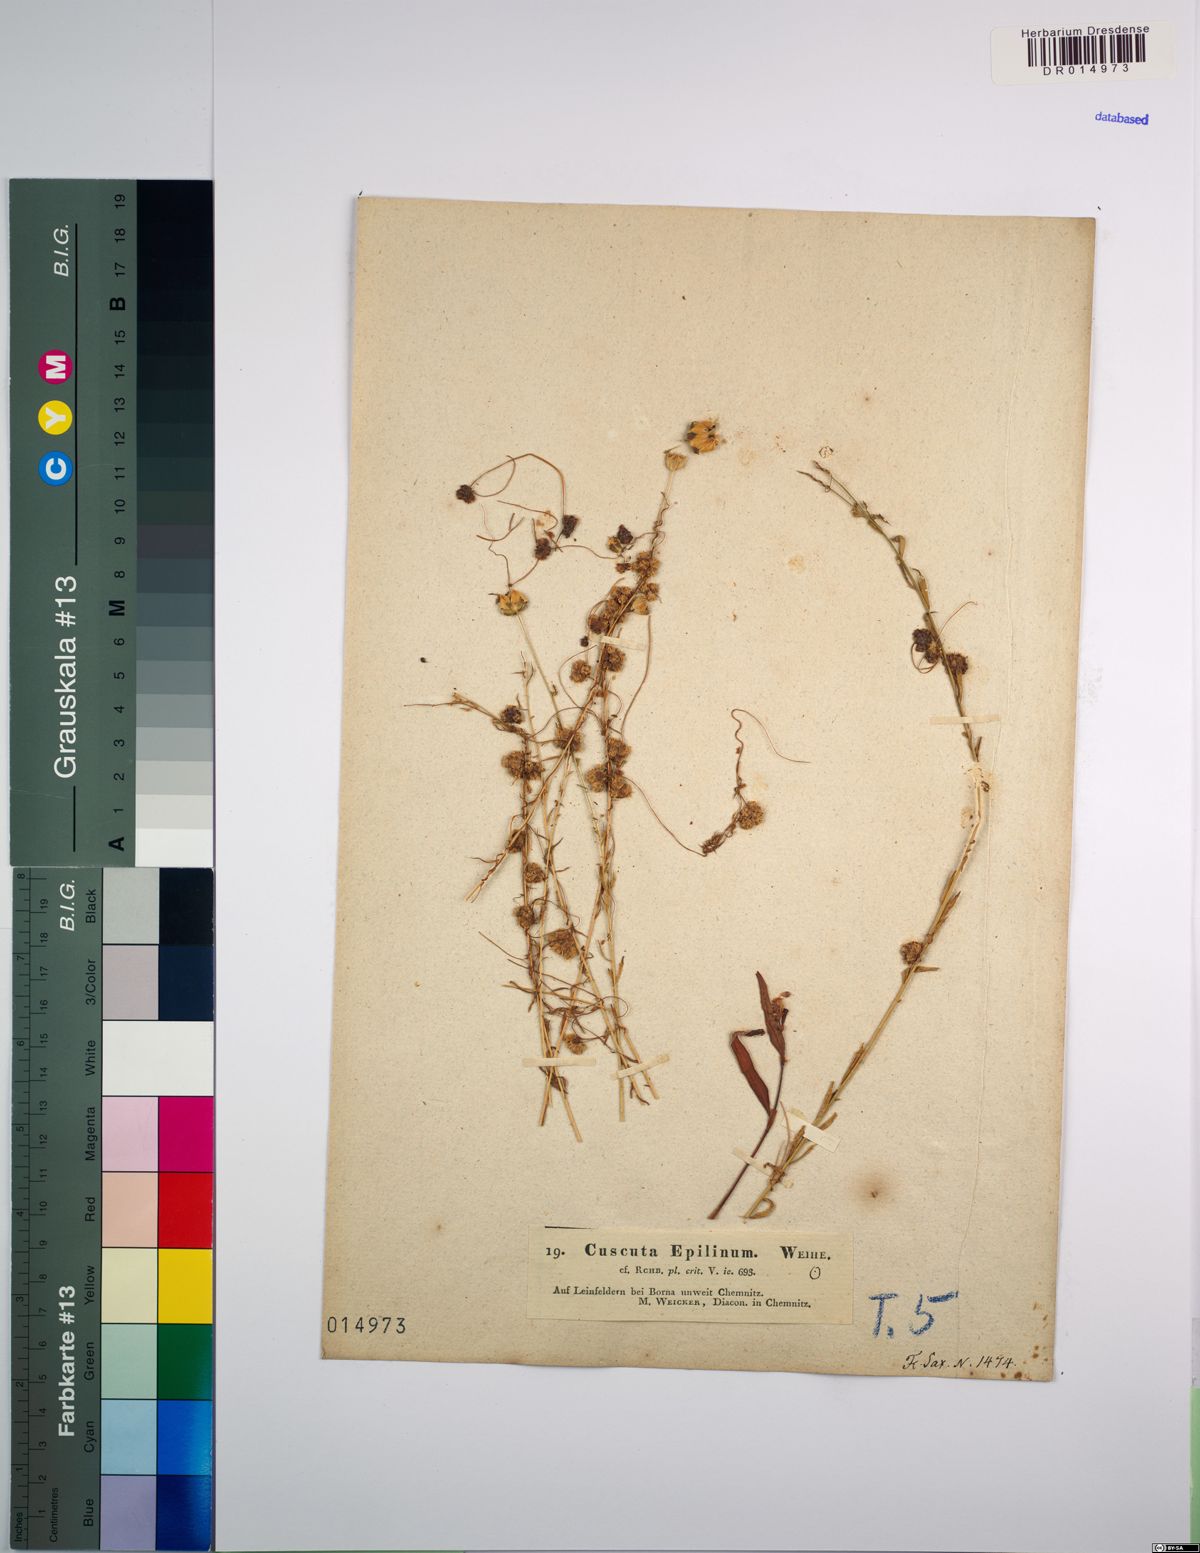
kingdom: Plantae
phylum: Tracheophyta
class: Magnoliopsida
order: Solanales
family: Convolvulaceae
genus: Cuscuta
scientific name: Cuscuta epilinum
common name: Flax dodder
